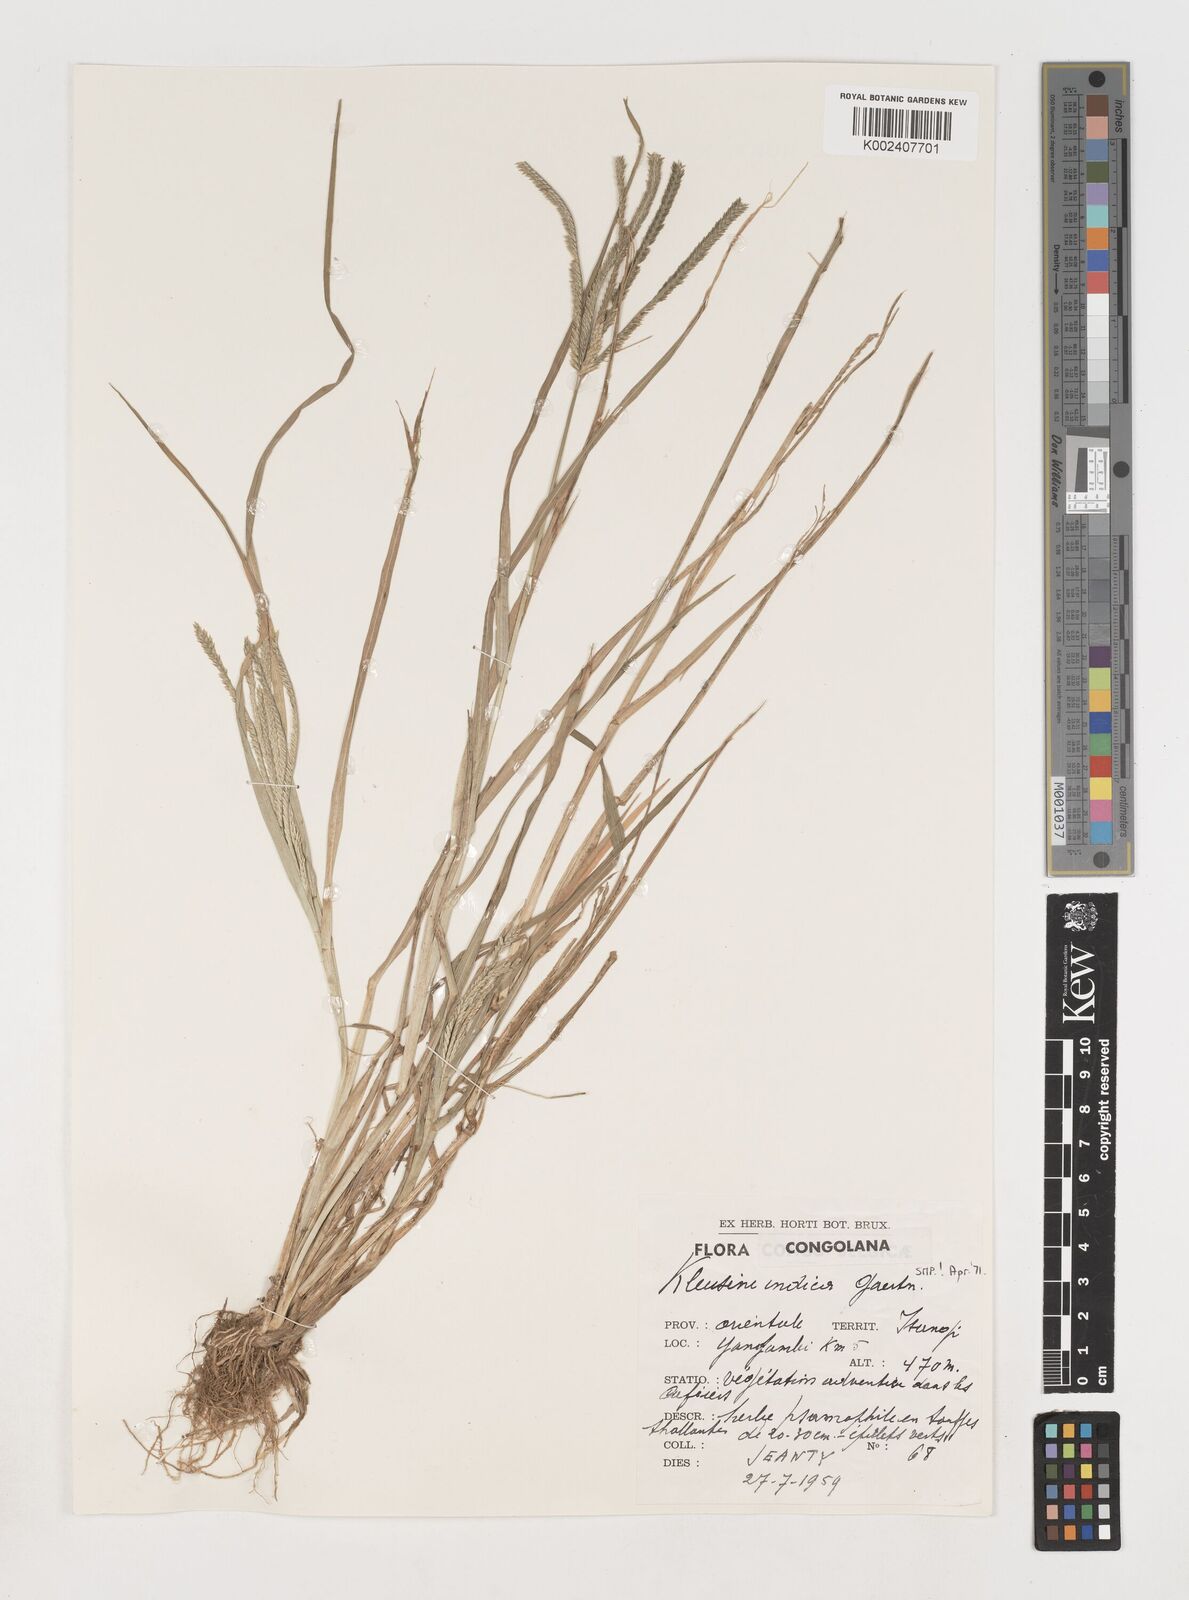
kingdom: Plantae
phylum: Tracheophyta
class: Liliopsida
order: Poales
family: Poaceae
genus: Eleusine
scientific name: Eleusine indica
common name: Yard-grass
